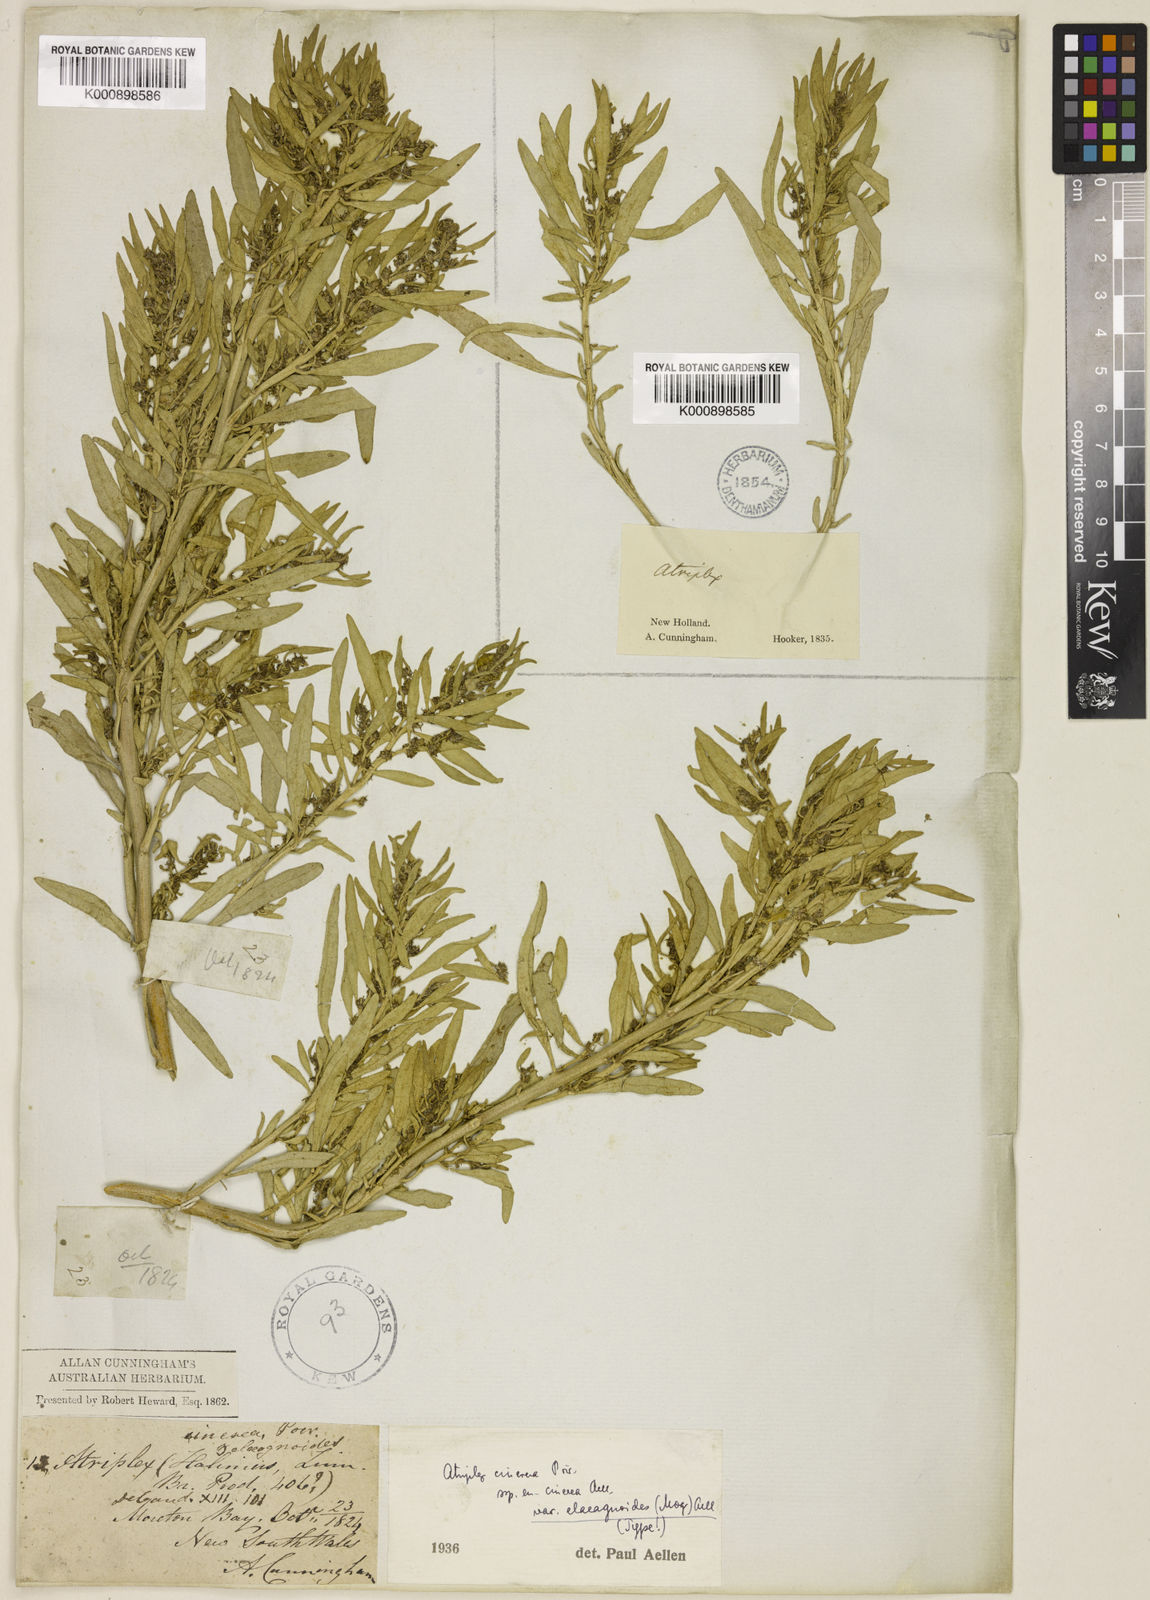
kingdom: Plantae
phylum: Tracheophyta
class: Magnoliopsida
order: Caryophyllales
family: Amaranthaceae
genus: Atriplex
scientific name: Atriplex cinerea
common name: Grey saltbush
